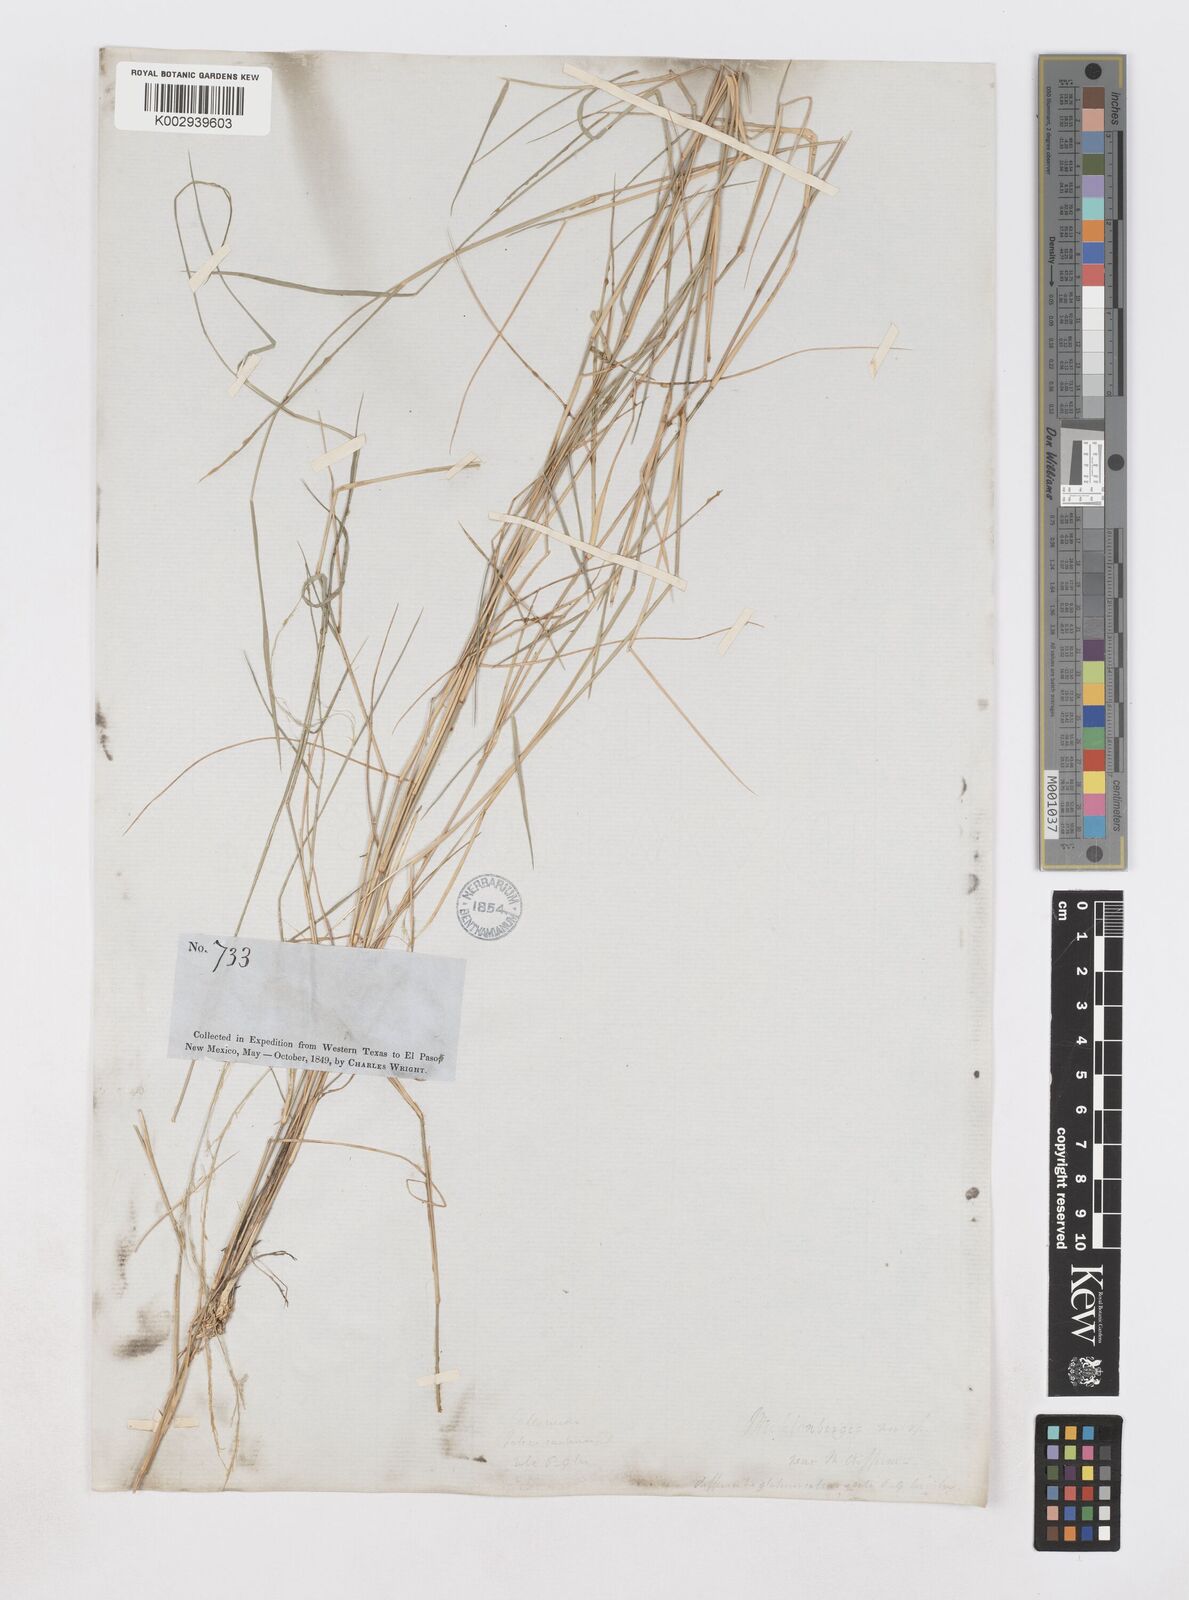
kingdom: Plantae
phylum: Tracheophyta
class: Liliopsida
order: Poales
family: Poaceae
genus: Muhlenbergia
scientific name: Muhlenbergia spiciformis
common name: Longawn muhly
